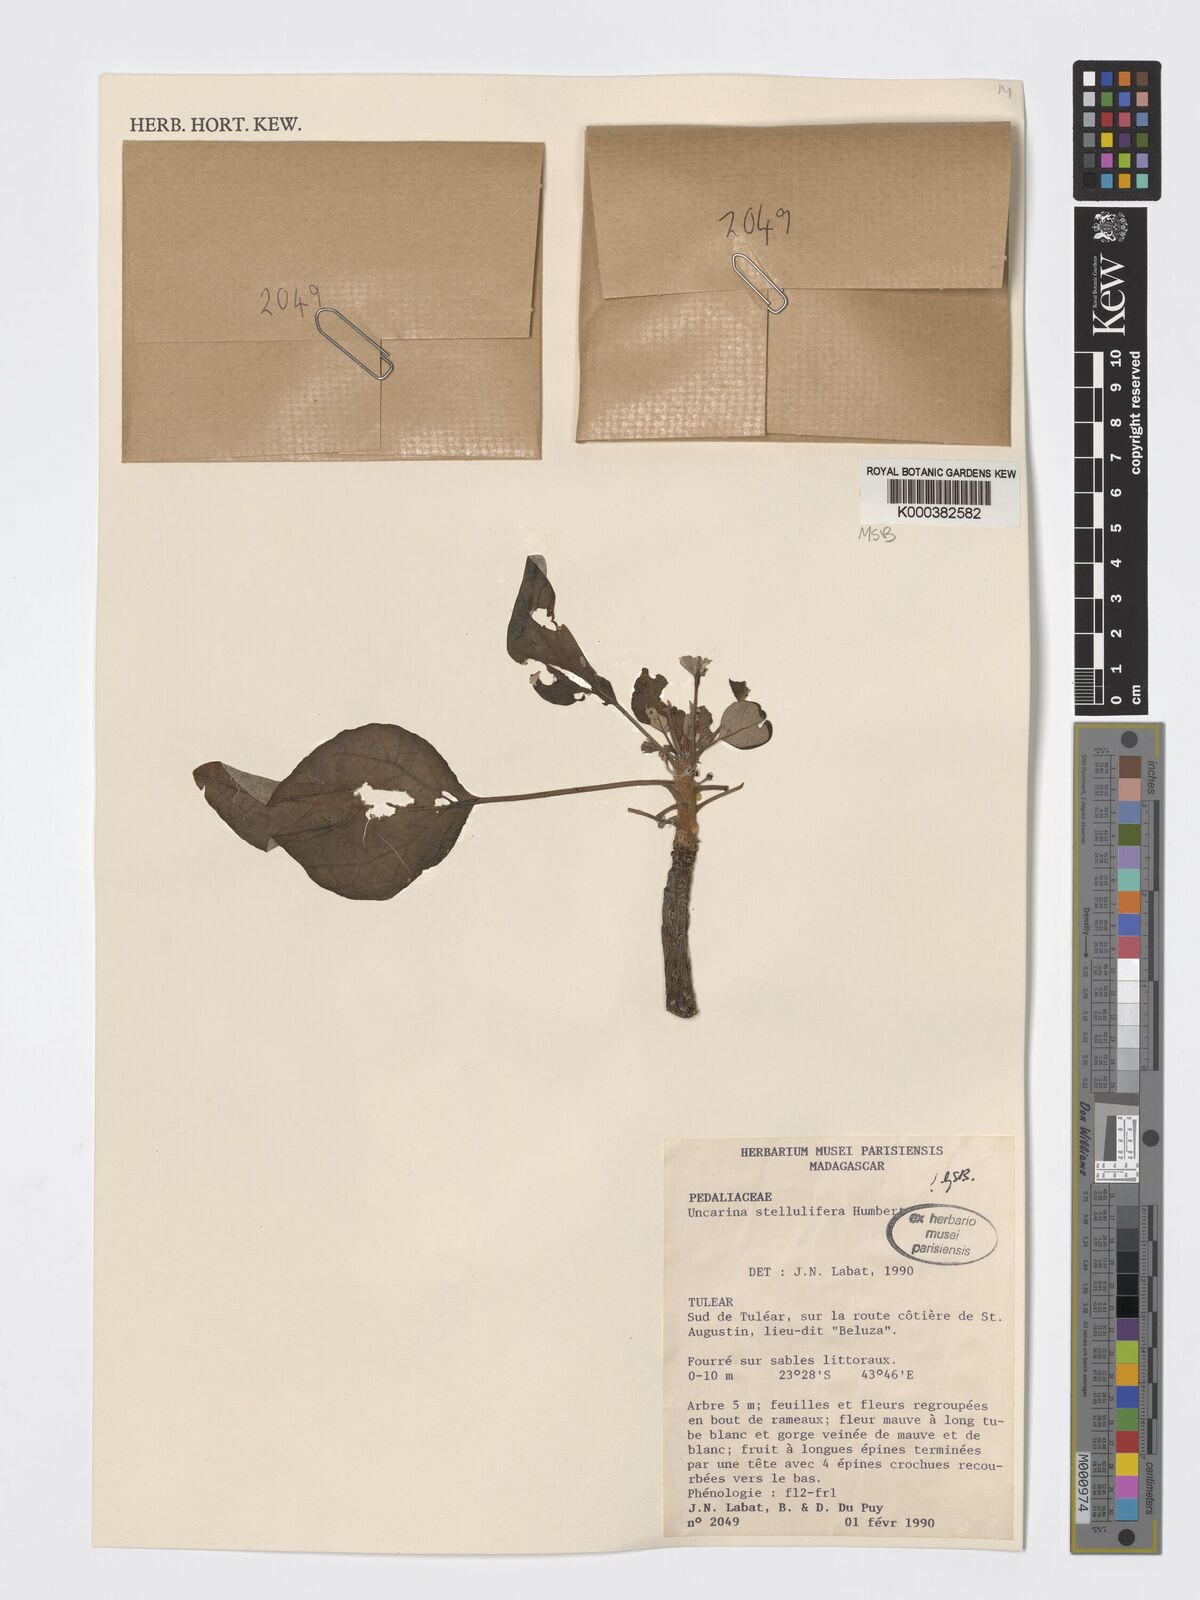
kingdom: Plantae
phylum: Tracheophyta
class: Magnoliopsida
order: Lamiales
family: Pedaliaceae
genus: Uncarina
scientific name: Uncarina stellulifera
